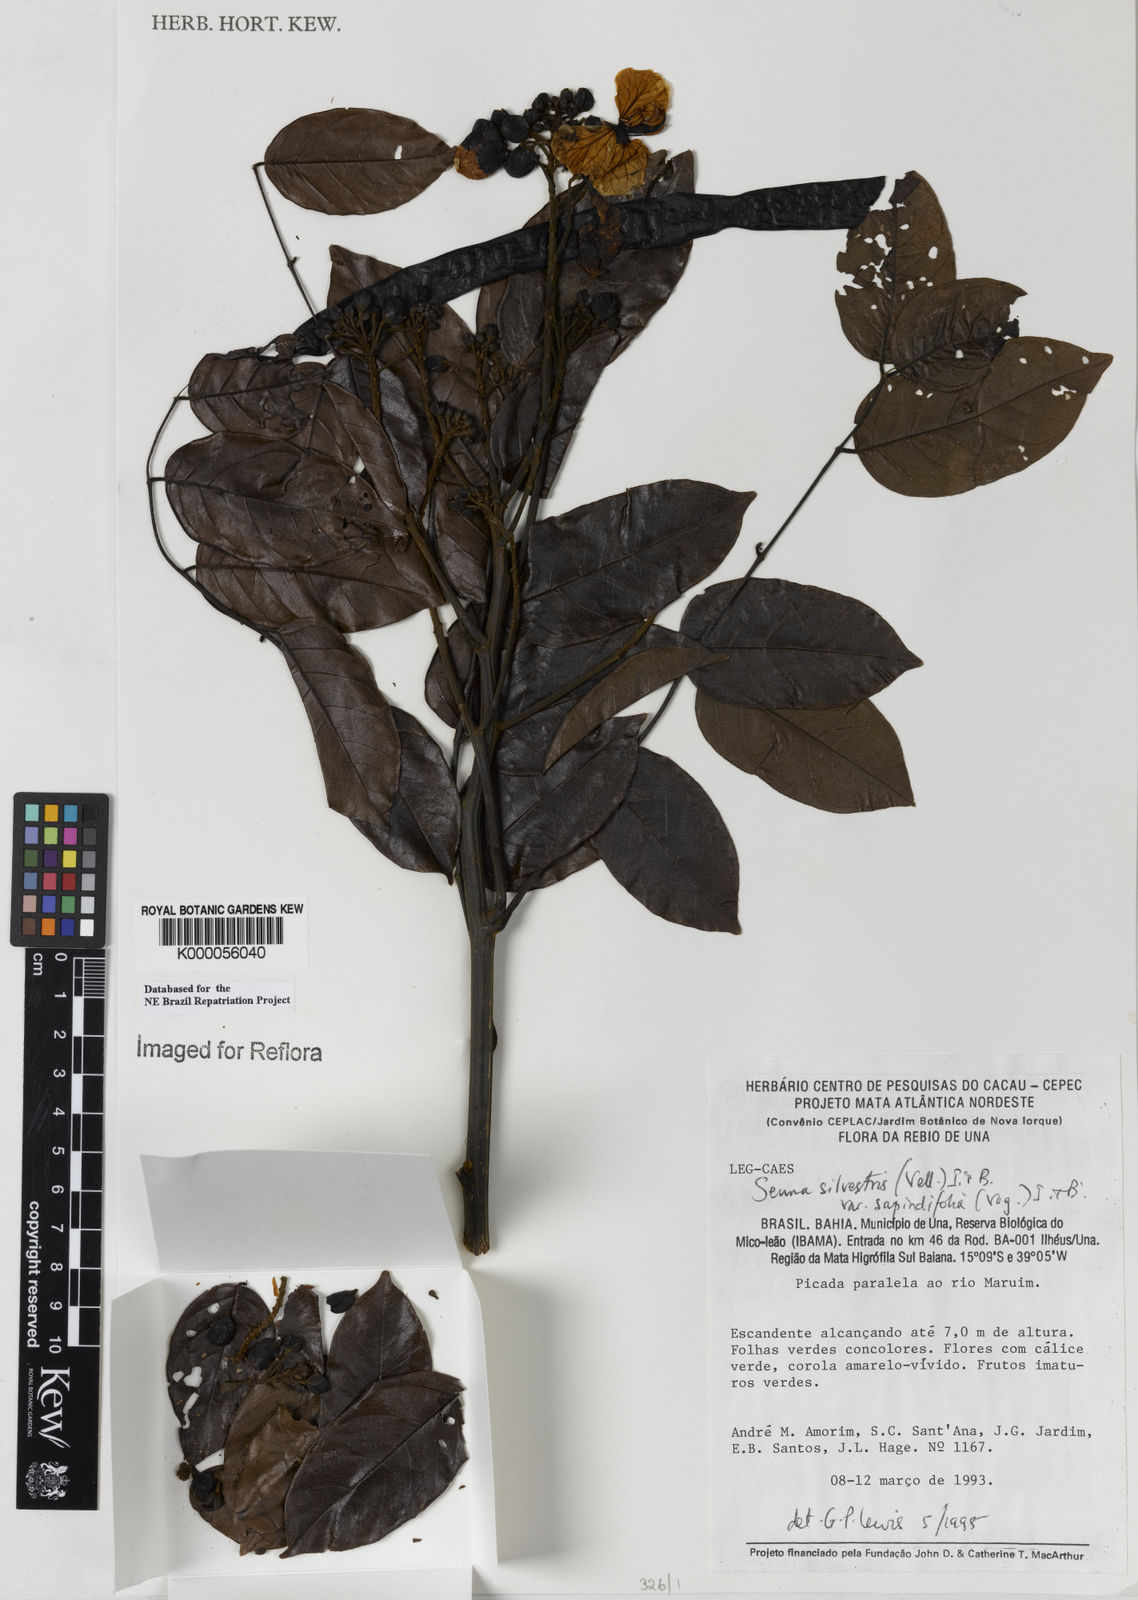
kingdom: Plantae
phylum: Tracheophyta
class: Magnoliopsida
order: Fabales
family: Fabaceae
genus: Senna
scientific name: Senna silvestris
